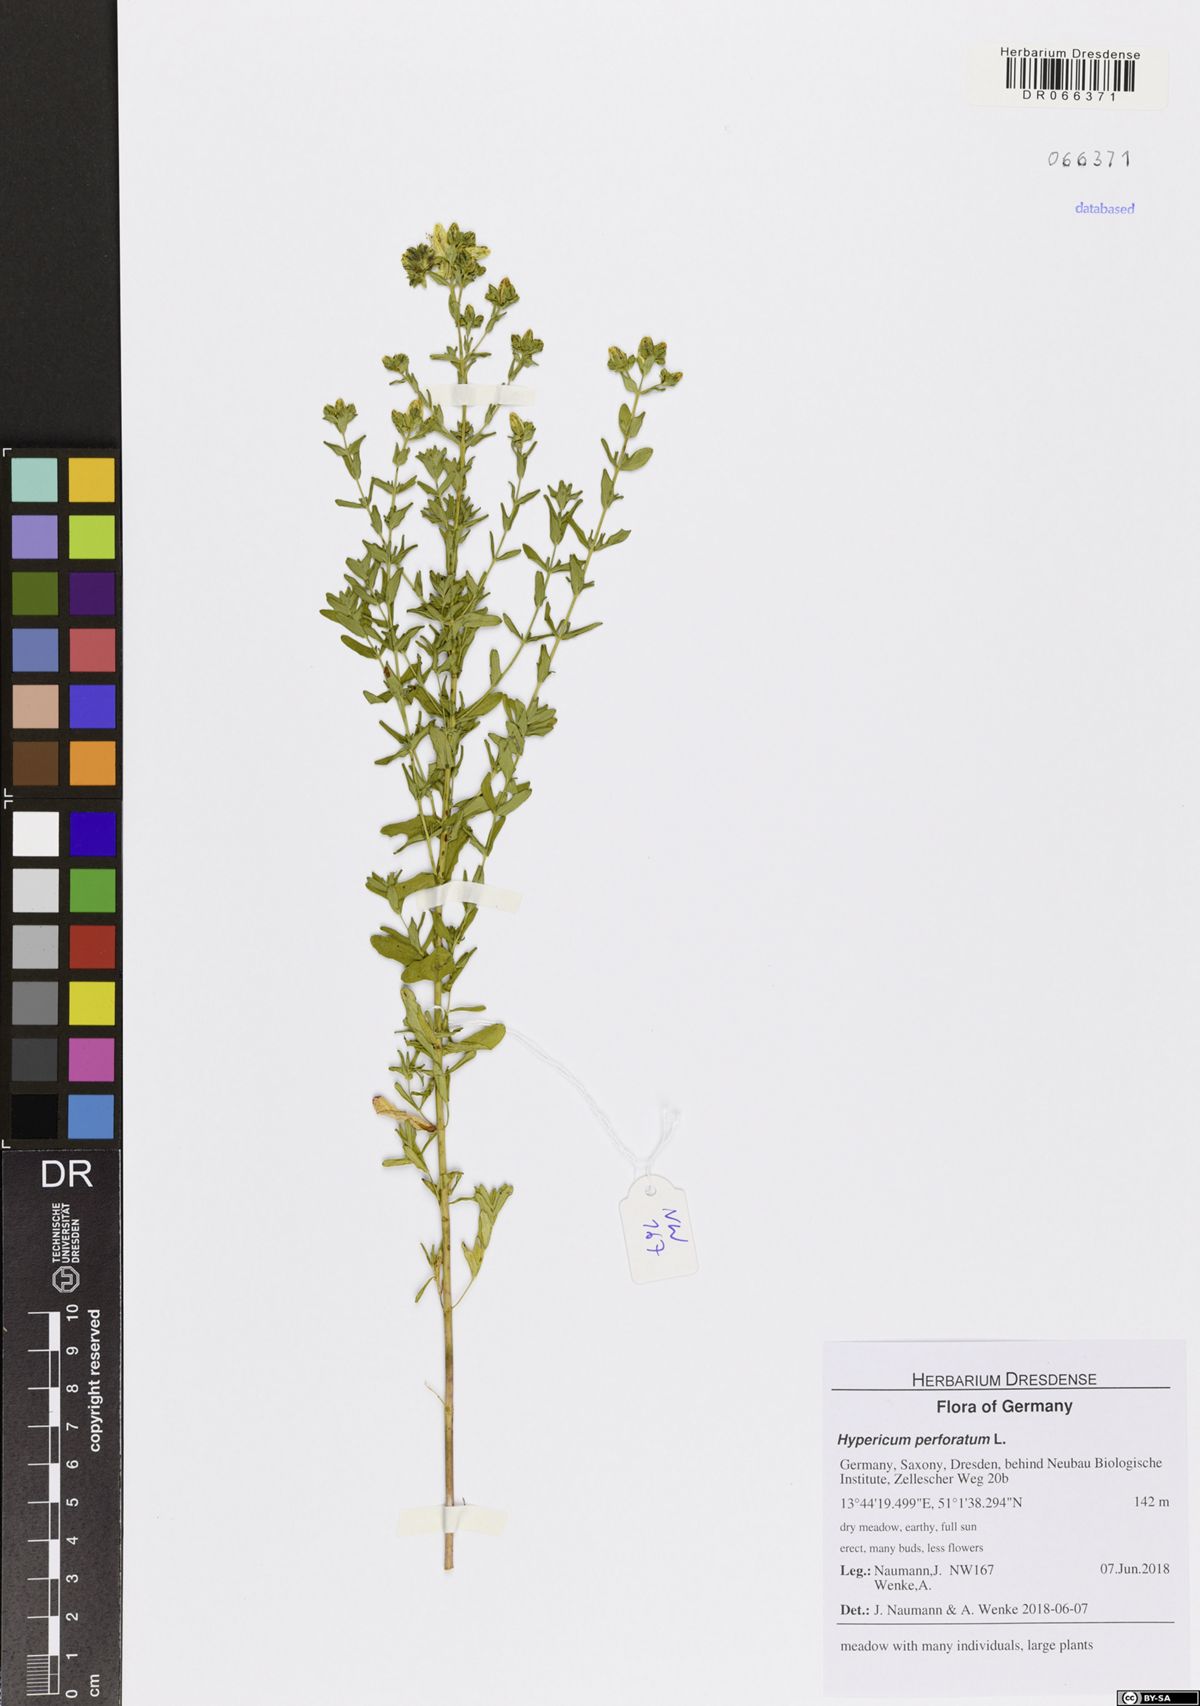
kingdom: Plantae
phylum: Tracheophyta
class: Magnoliopsida
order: Malpighiales
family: Hypericaceae
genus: Hypericum
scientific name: Hypericum perforatum
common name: Common st. johnswort
